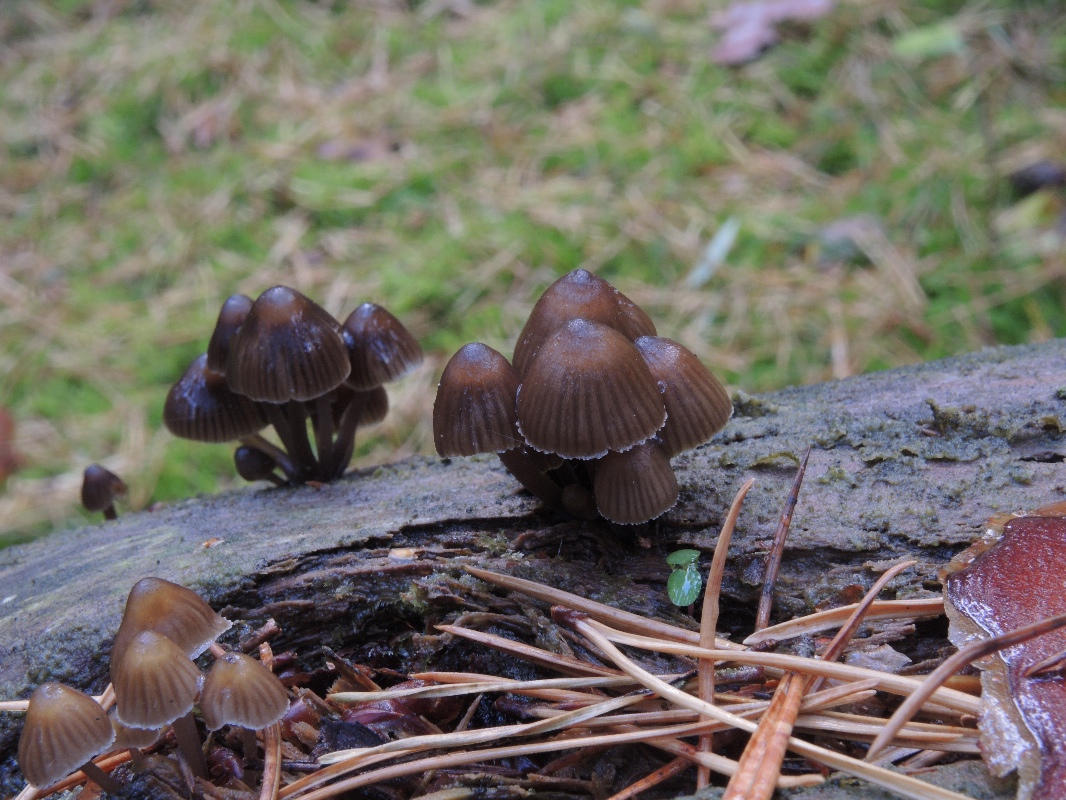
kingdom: Fungi
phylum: Basidiomycota
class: Agaricomycetes
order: Agaricales
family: Mycenaceae
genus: Mycena
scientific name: Mycena stipata
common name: stinkende huesvamp
